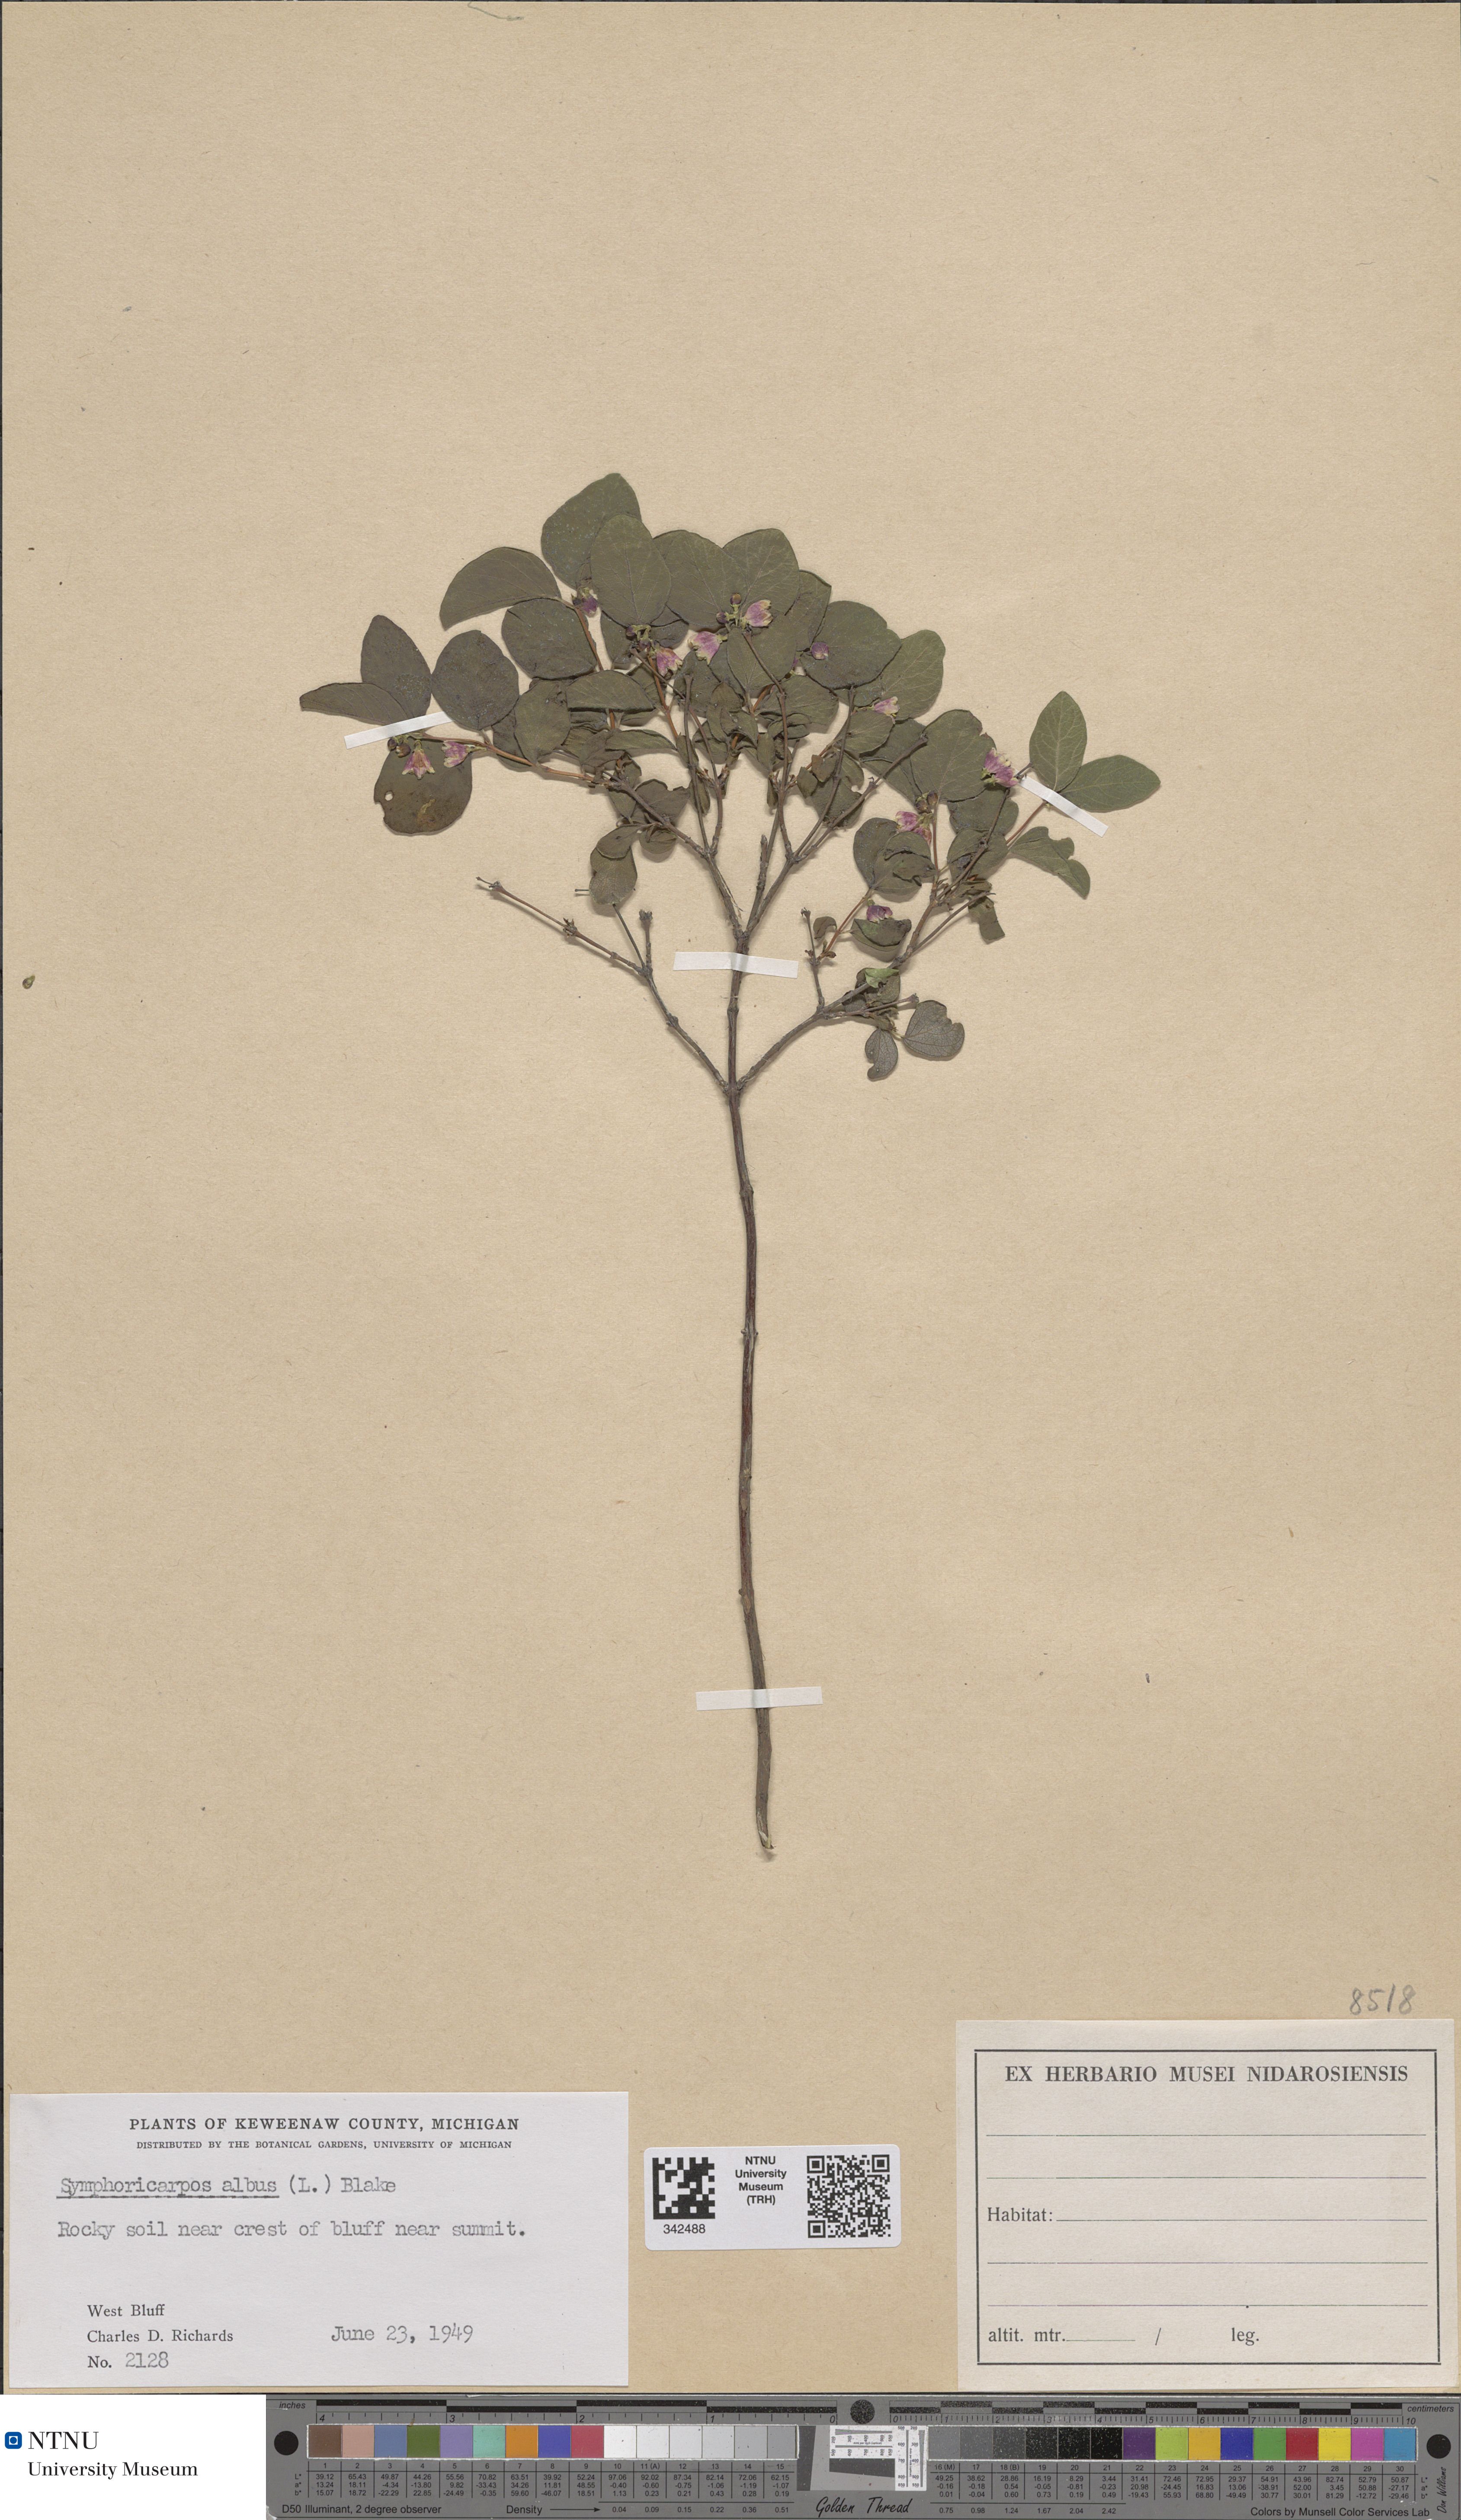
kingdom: Plantae
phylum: Tracheophyta
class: Magnoliopsida
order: Dipsacales
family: Caprifoliaceae
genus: Symphoricarpos
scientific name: Symphoricarpos albus
